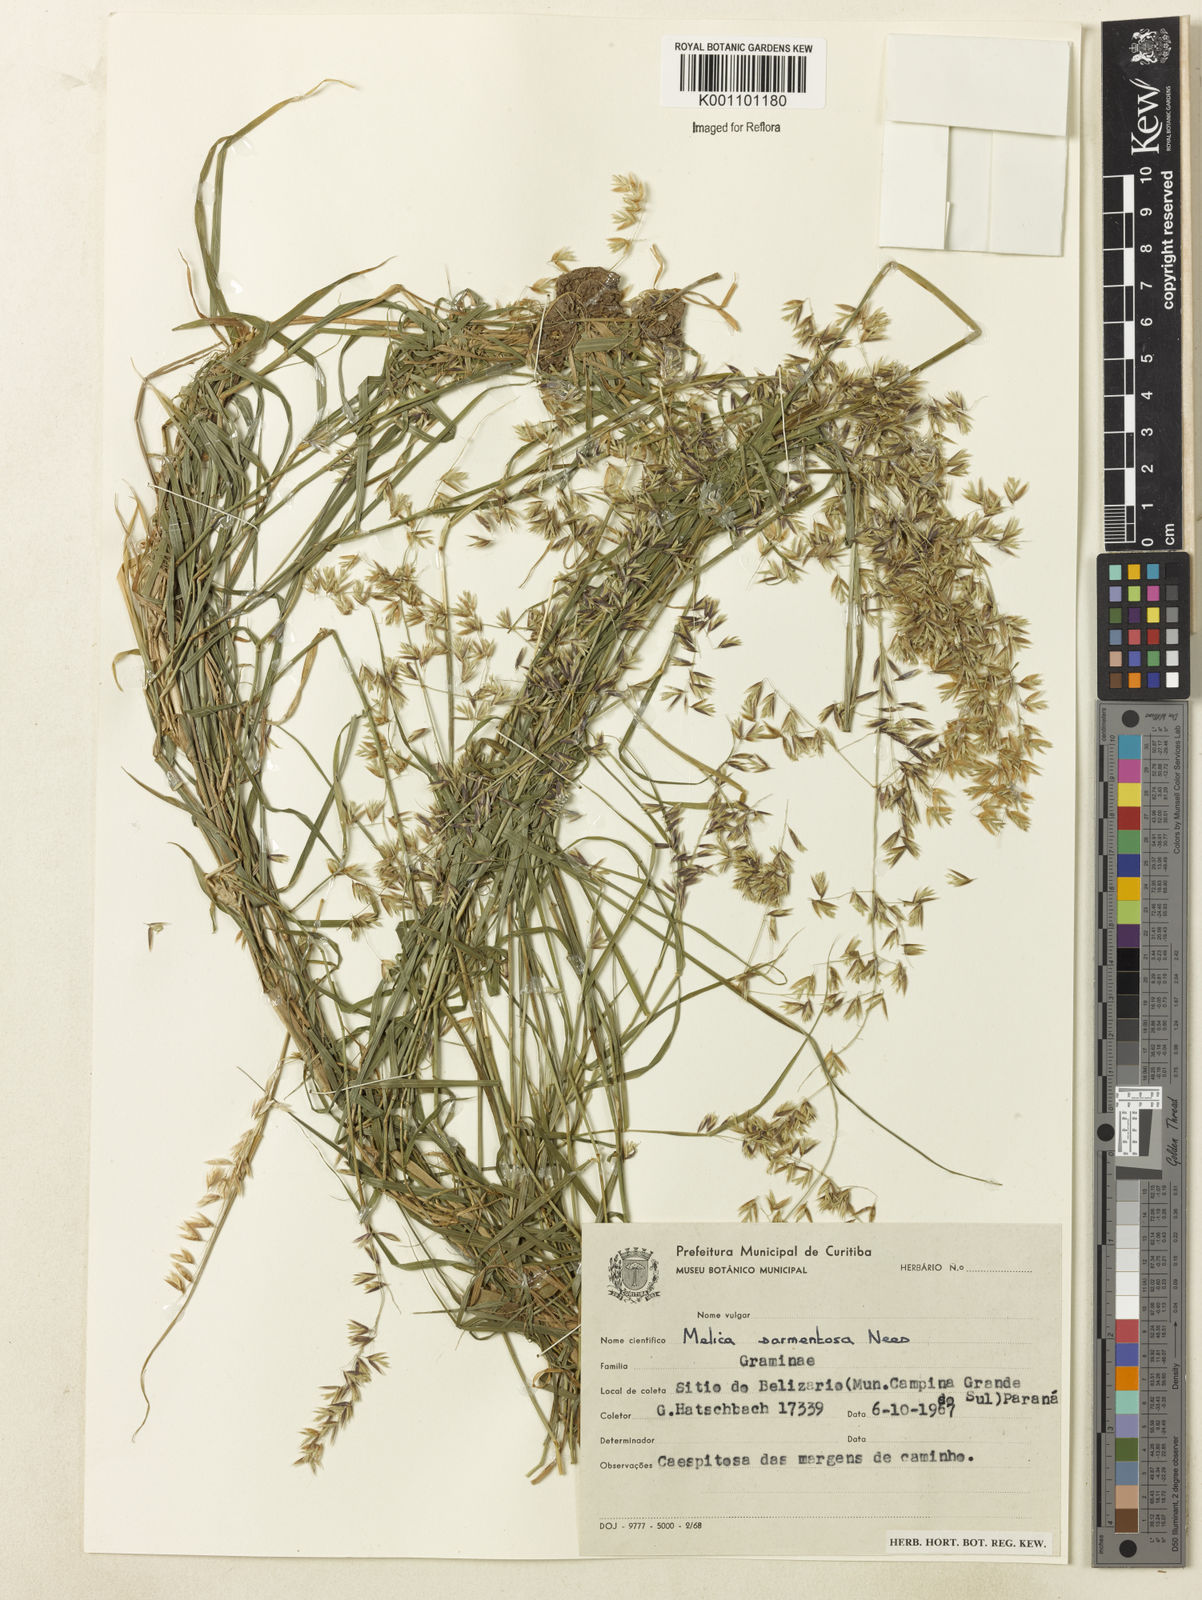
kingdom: Plantae
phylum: Tracheophyta
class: Liliopsida
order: Poales
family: Poaceae
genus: Melica
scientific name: Melica sarmentosa
